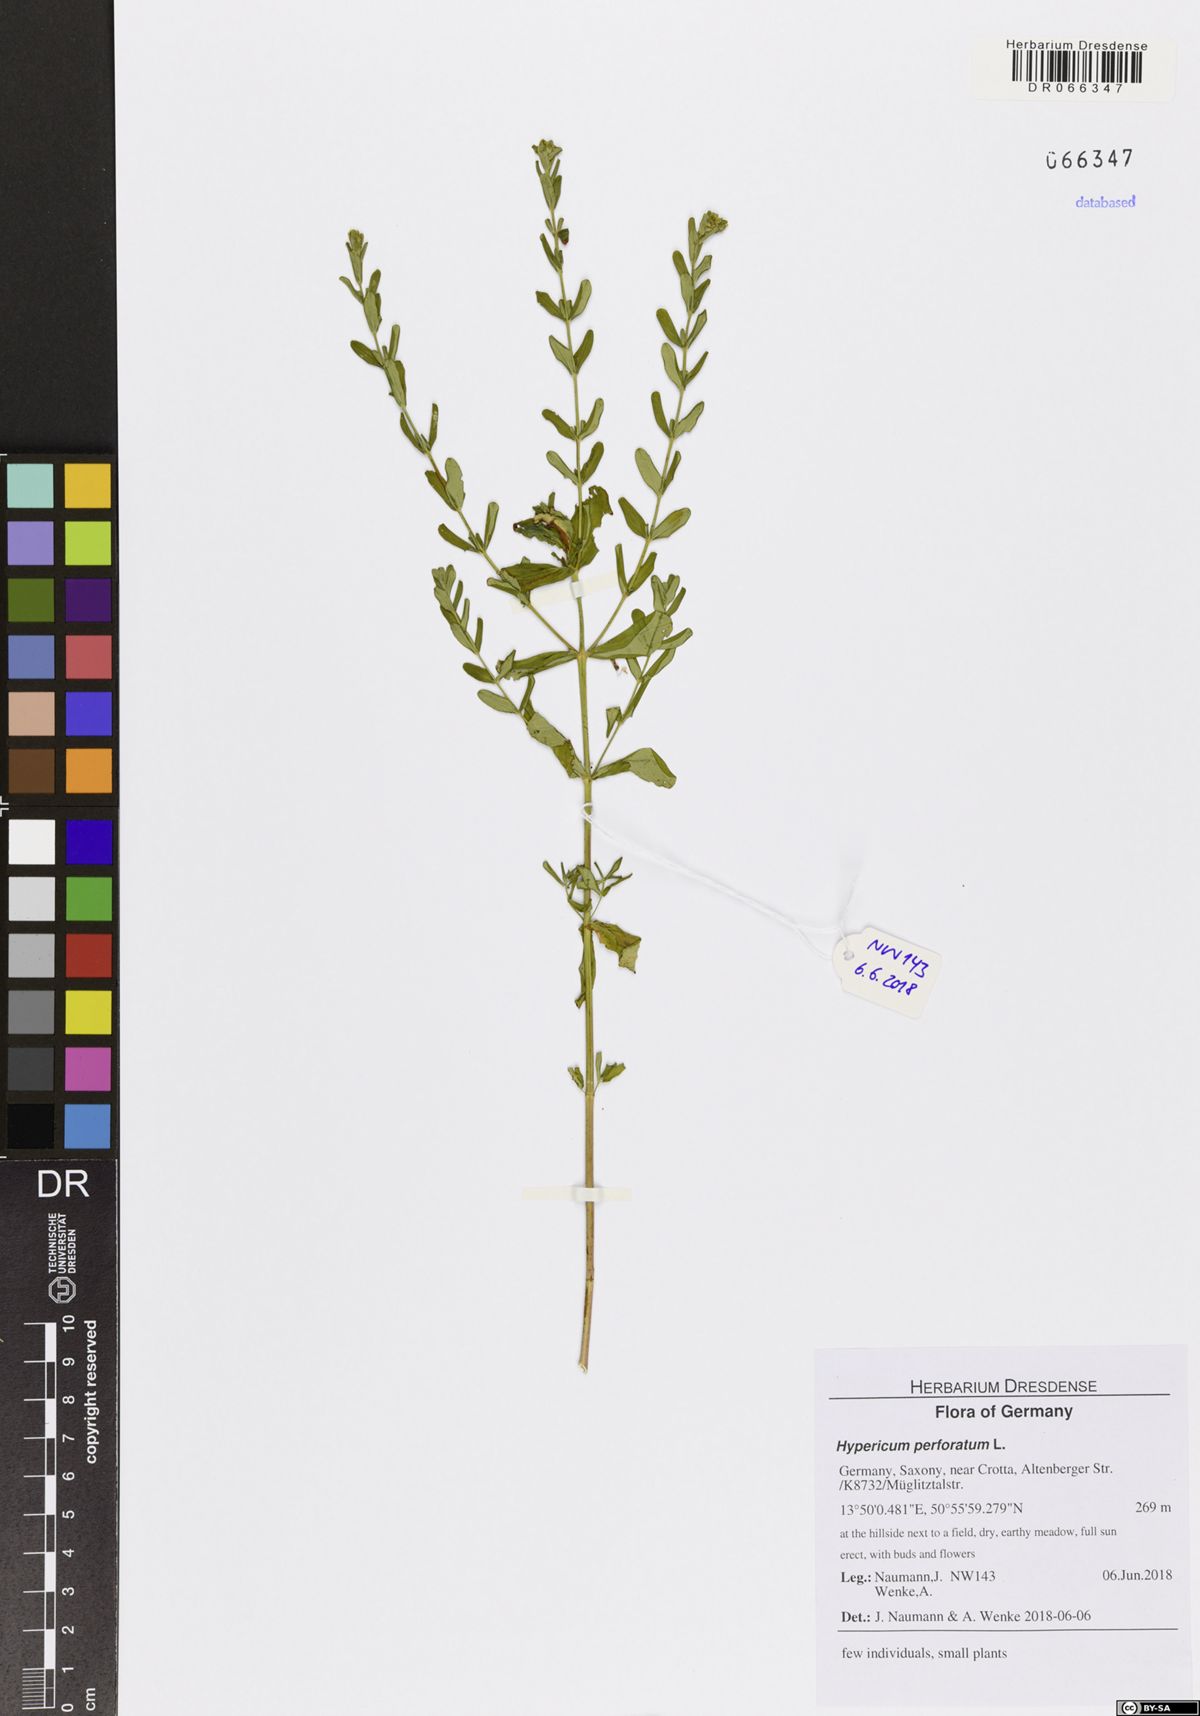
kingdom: Plantae
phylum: Tracheophyta
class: Magnoliopsida
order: Malpighiales
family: Hypericaceae
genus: Hypericum
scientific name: Hypericum perforatum
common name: Common st. johnswort
